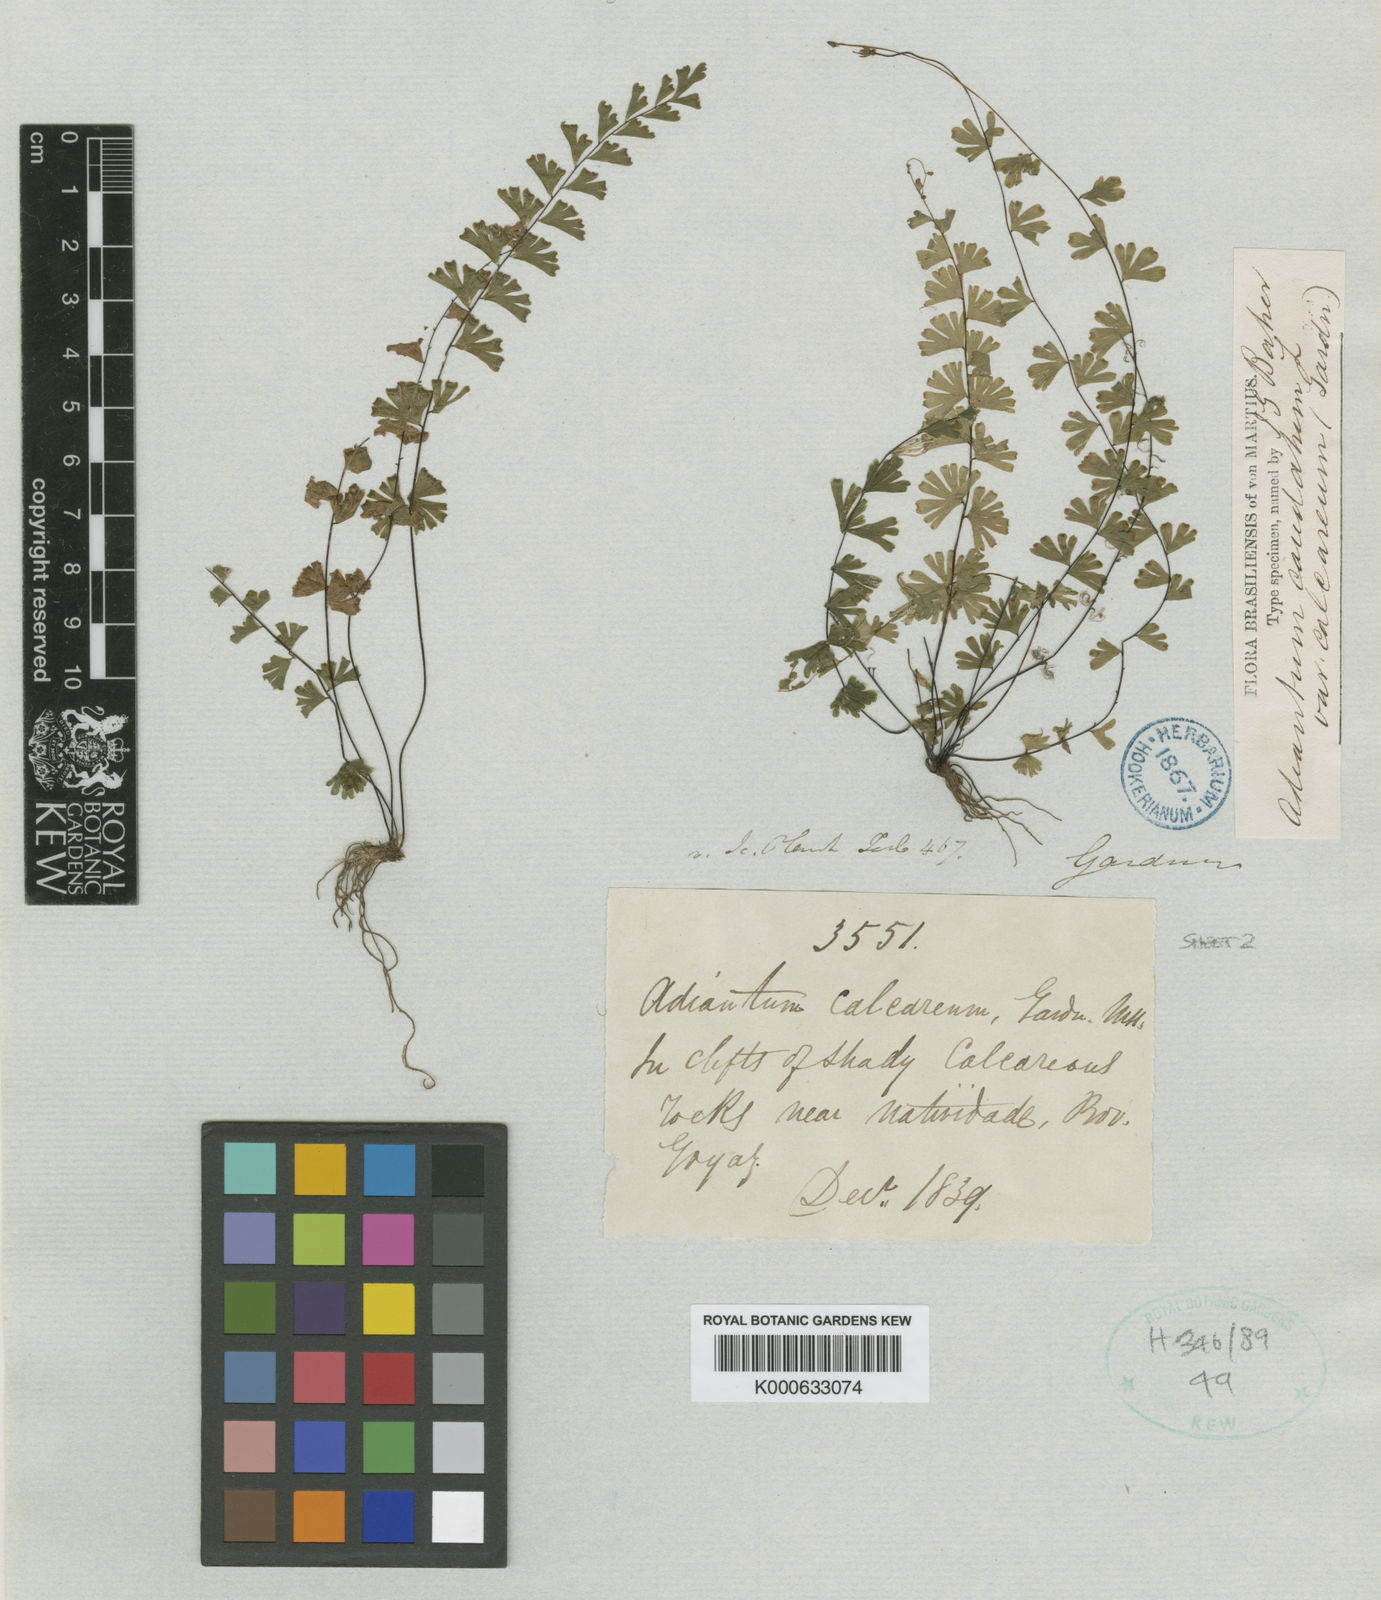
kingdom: Plantae
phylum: Tracheophyta
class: Polypodiopsida
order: Polypodiales
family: Pteridaceae
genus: Adiantum
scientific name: Adiantum calcareum
